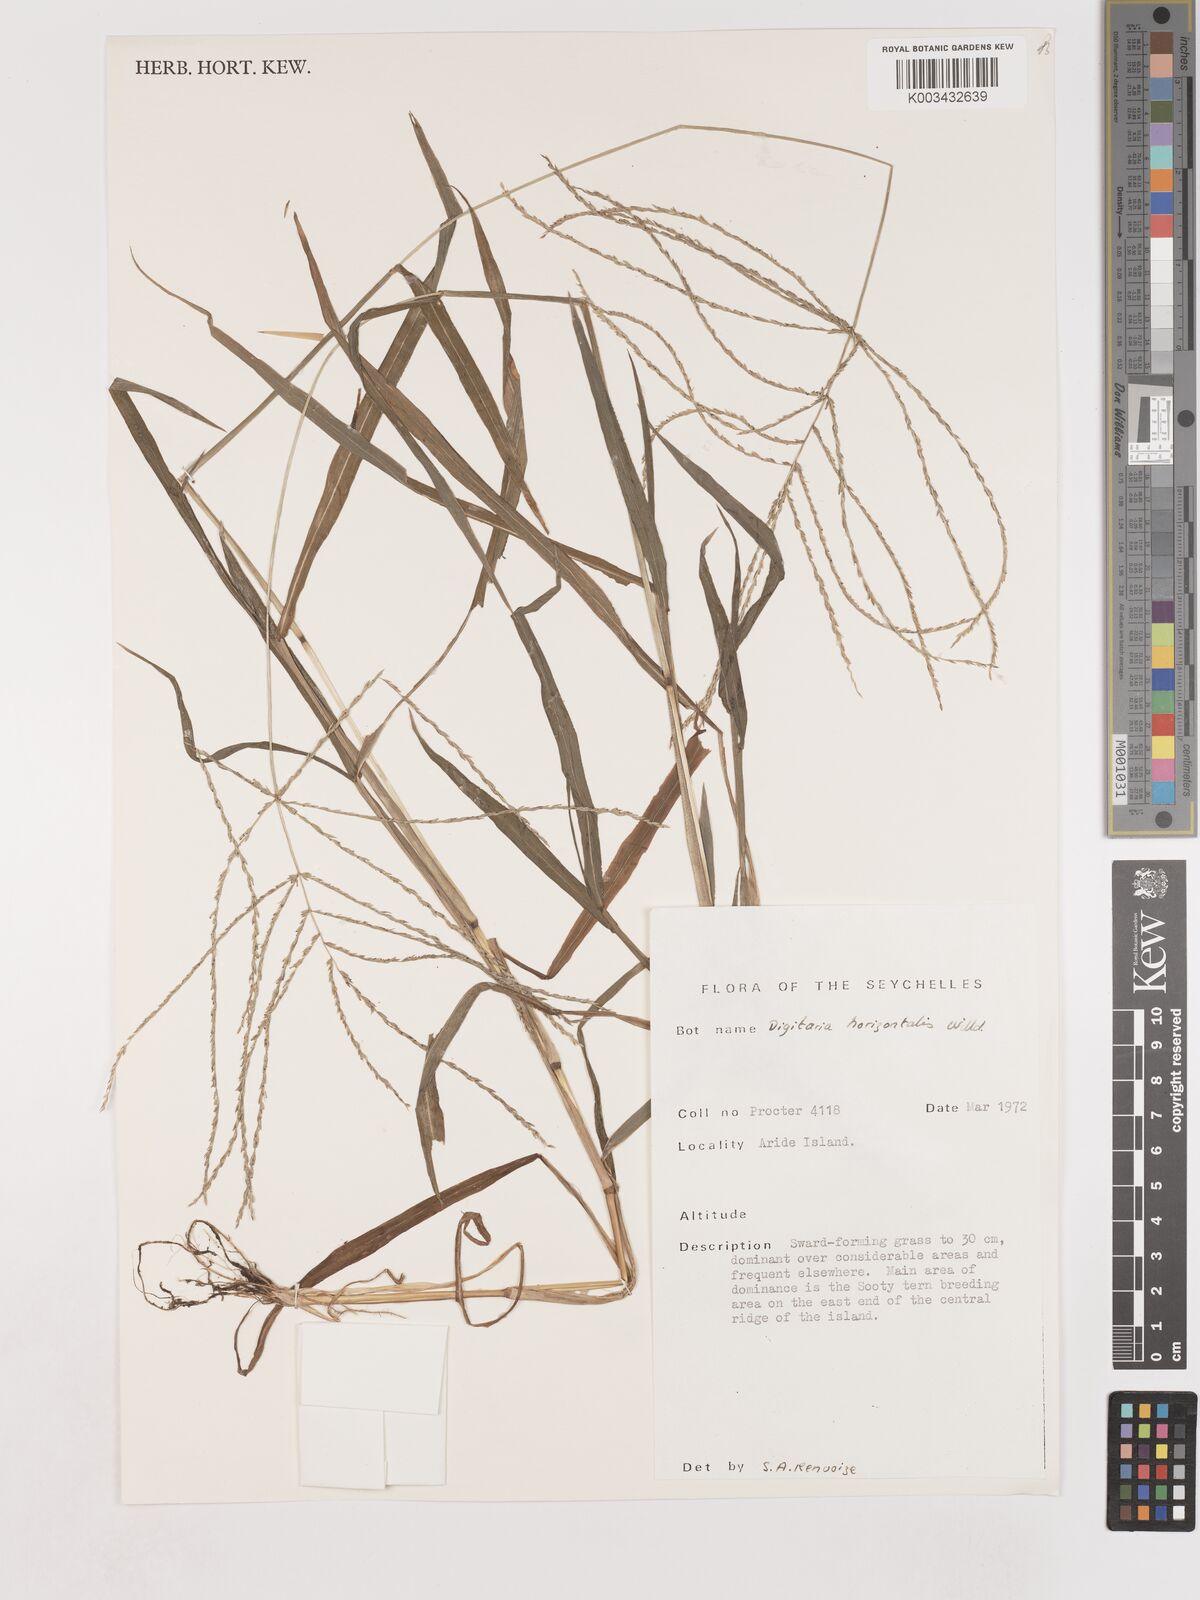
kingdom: Plantae
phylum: Tracheophyta
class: Liliopsida
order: Poales
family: Poaceae
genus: Digitaria
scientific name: Digitaria horizontalis
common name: Jamaican crabgrass
